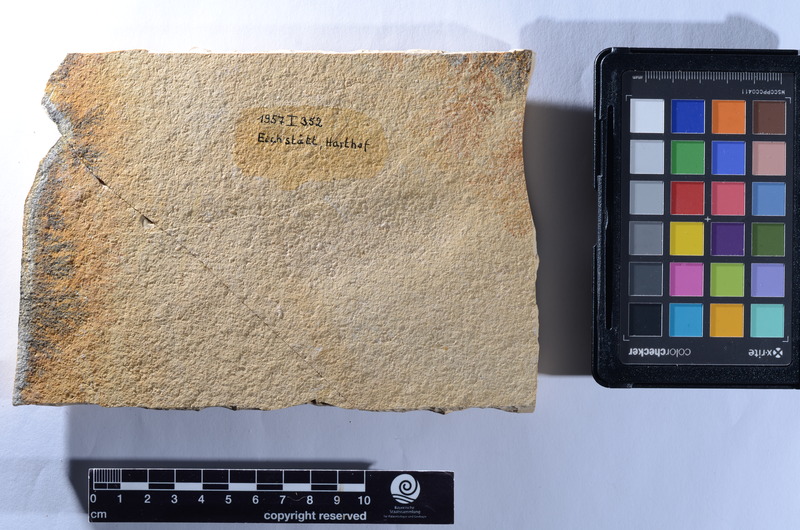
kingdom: Animalia
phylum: Chordata
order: Amiiformes
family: Caturidae
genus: Caturus
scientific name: Caturus
